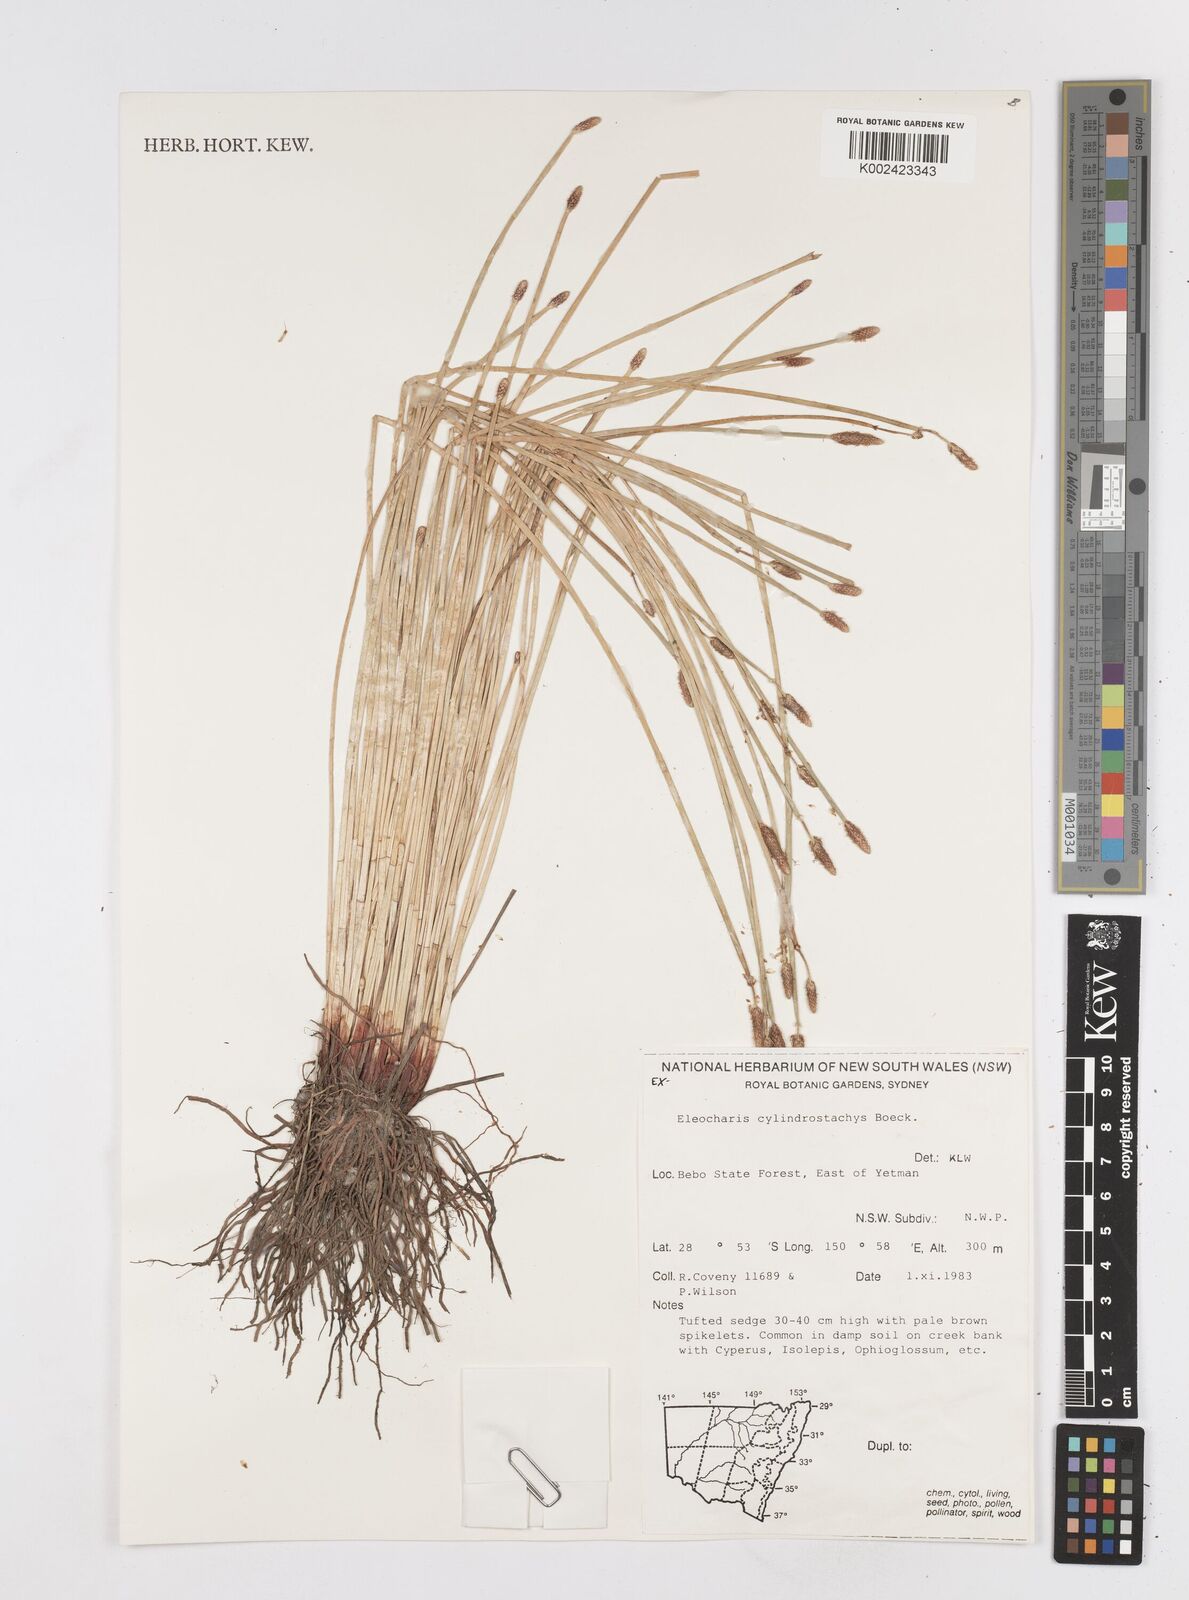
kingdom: Plantae
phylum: Tracheophyta
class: Liliopsida
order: Poales
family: Cyperaceae
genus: Eleocharis
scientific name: Eleocharis cylindrostachys
